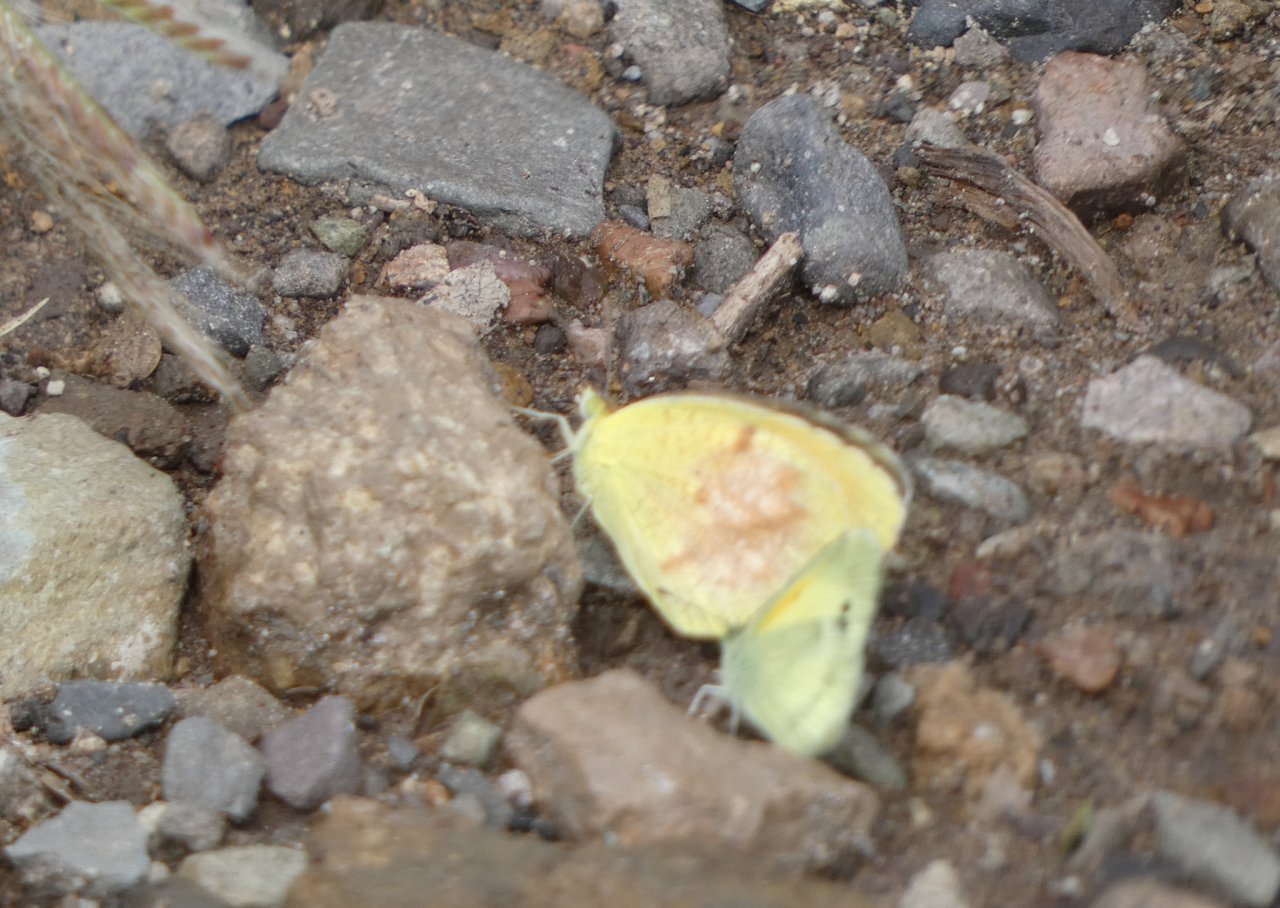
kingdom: Animalia
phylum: Arthropoda
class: Insecta
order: Lepidoptera
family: Pieridae
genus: Abaeis
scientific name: Abaeis nicippe
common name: Sleepy Orange
